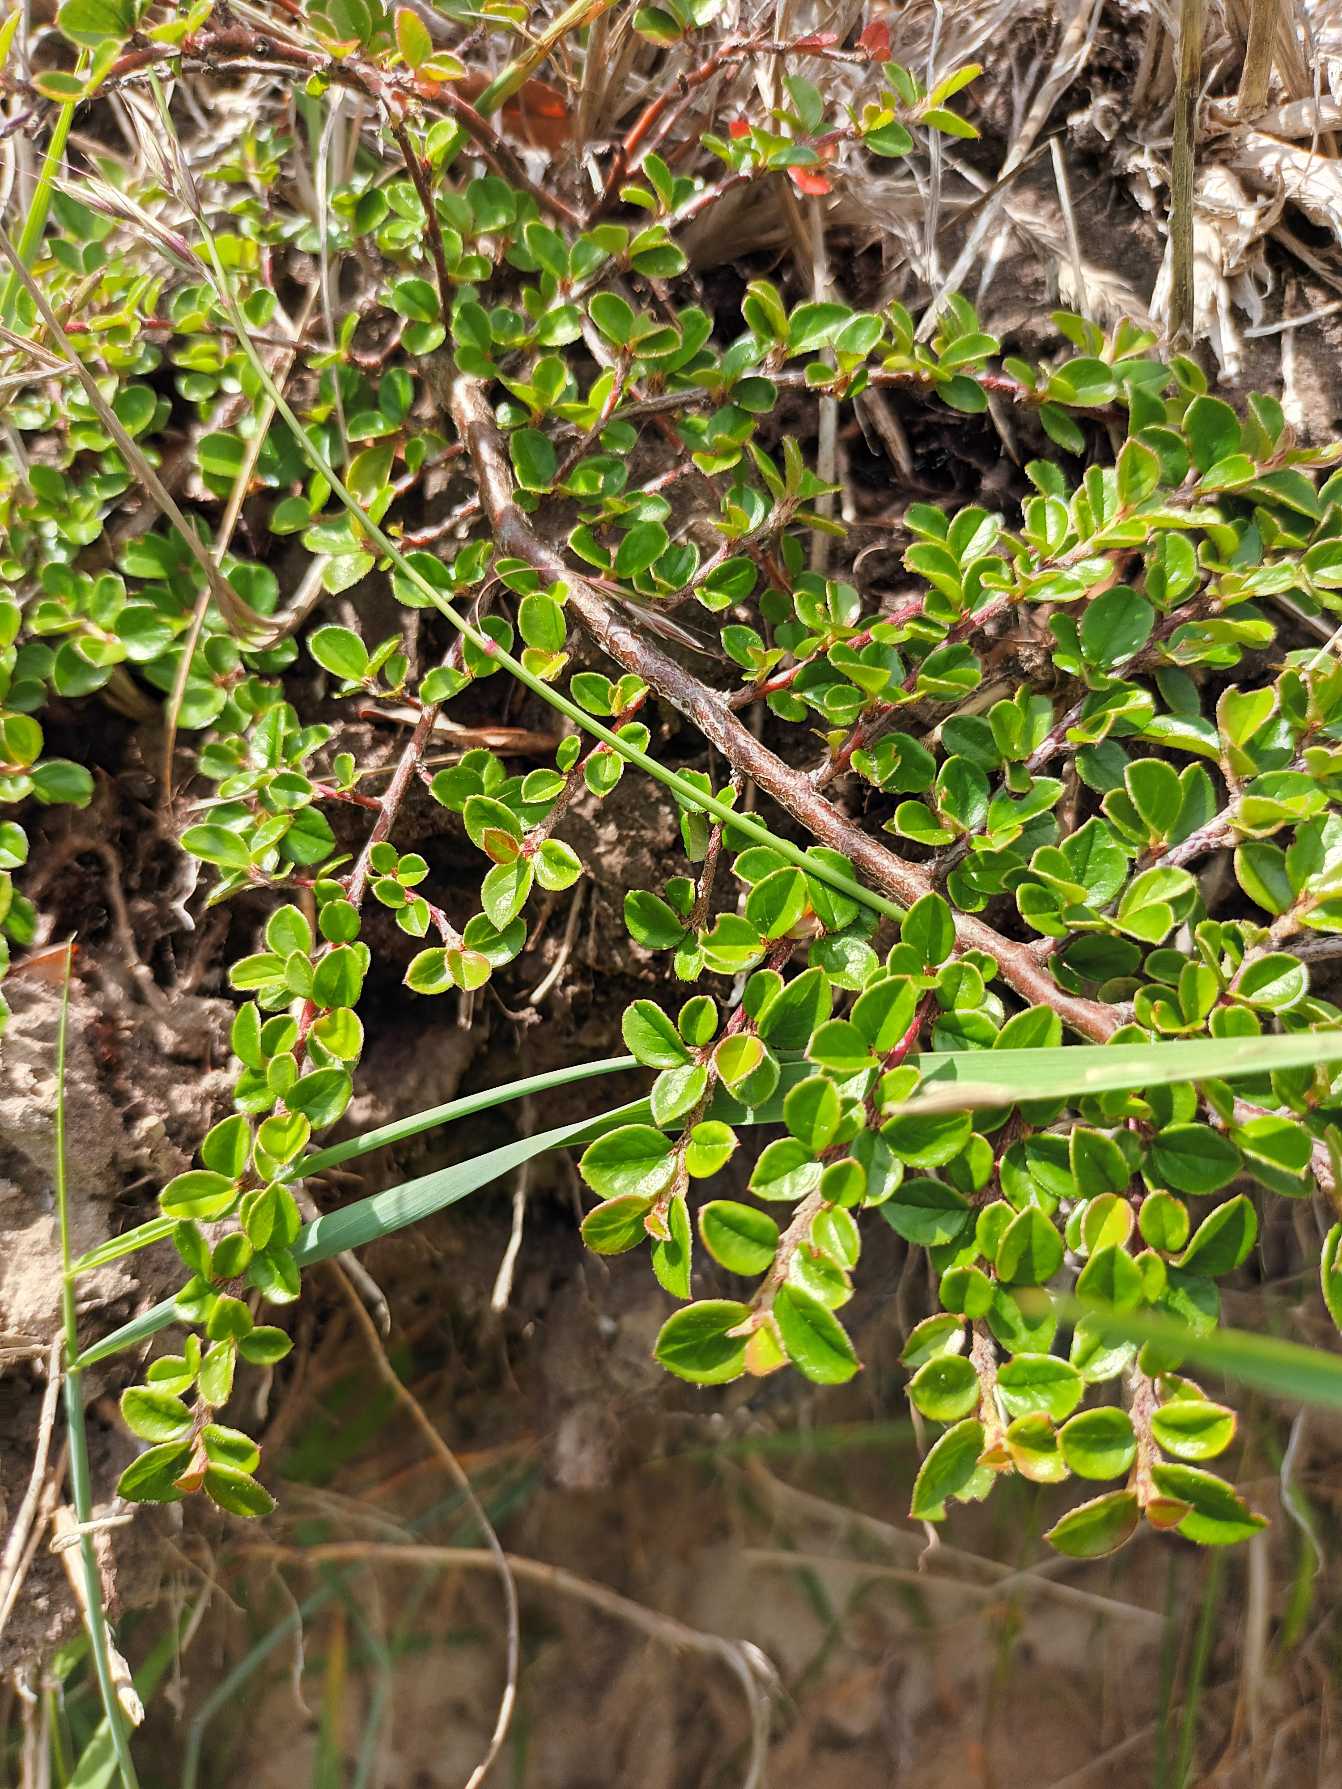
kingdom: Plantae
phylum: Tracheophyta
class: Magnoliopsida
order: Rosales
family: Rosaceae
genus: Cotoneaster
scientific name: Cotoneaster horizontalis
